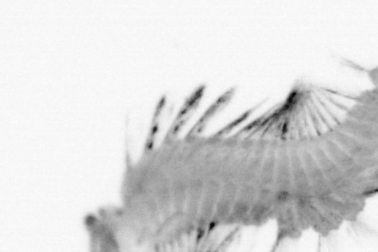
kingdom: Animalia
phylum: Annelida
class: Polychaeta
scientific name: Polychaeta
